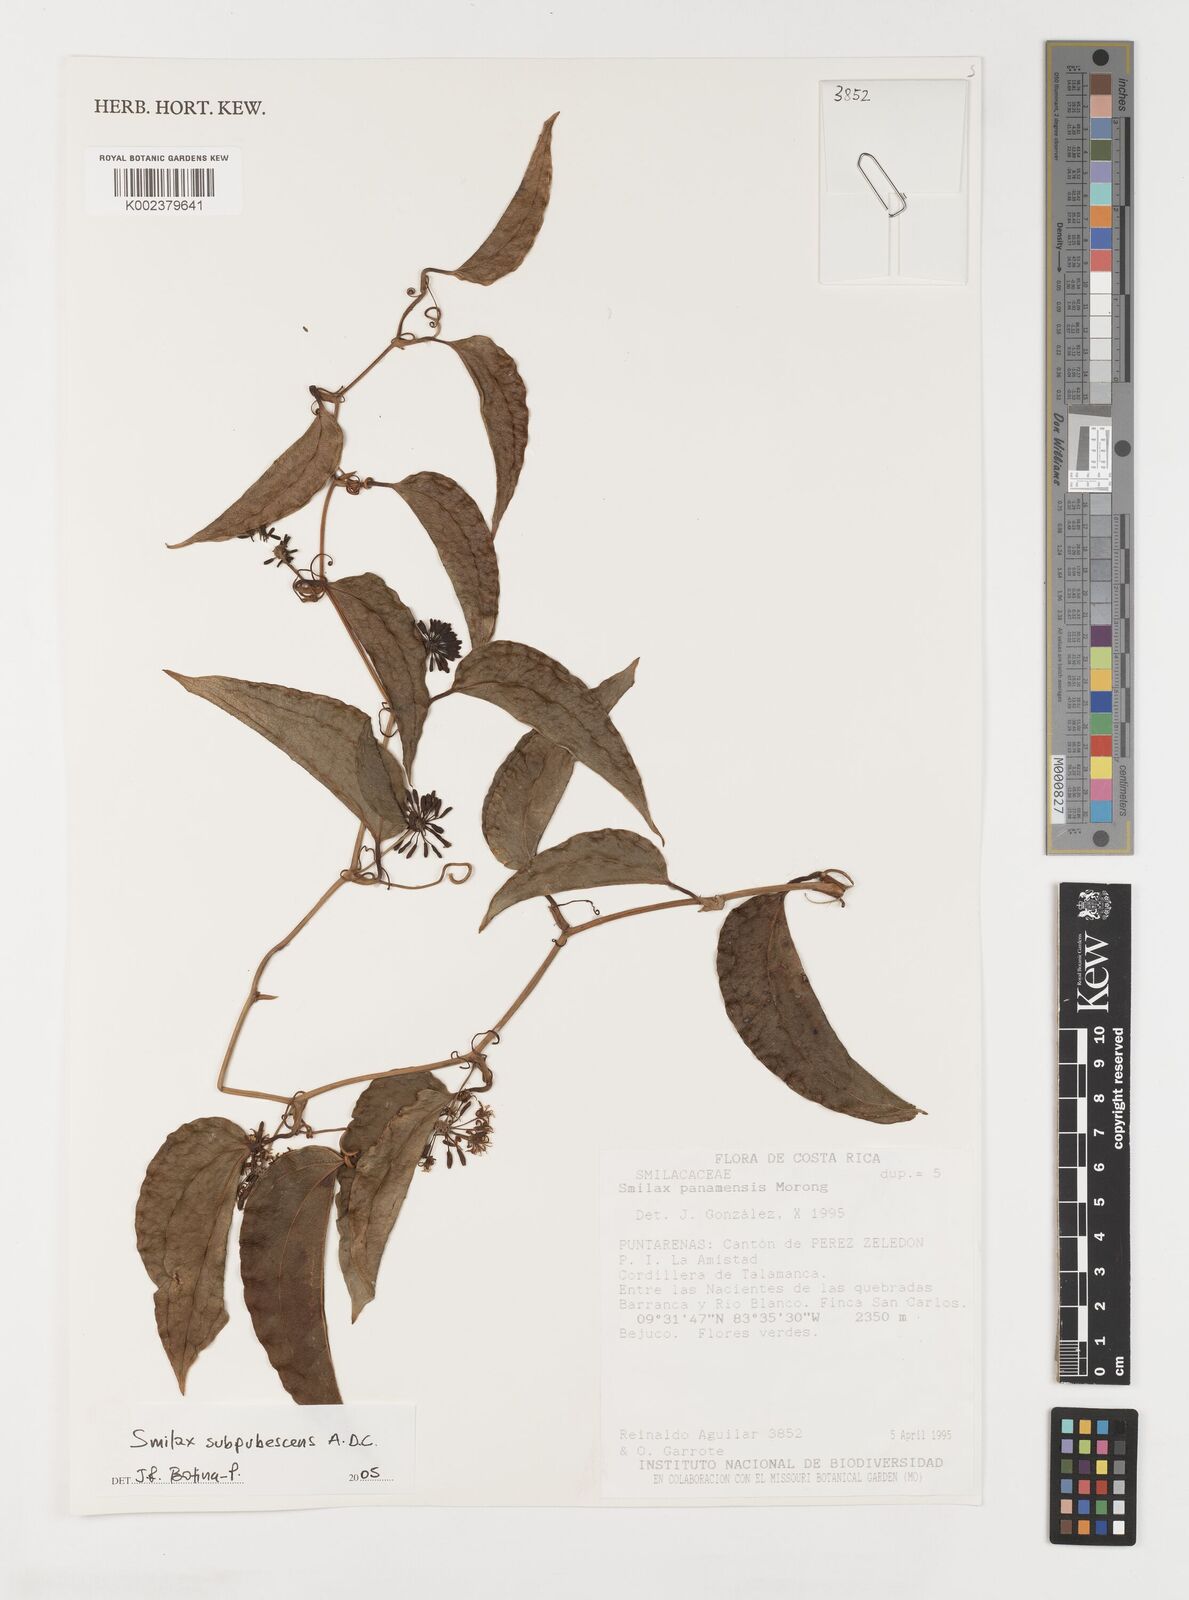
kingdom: Plantae
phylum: Tracheophyta
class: Liliopsida
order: Liliales
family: Smilacaceae
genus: Smilax
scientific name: Smilax subpubescens
